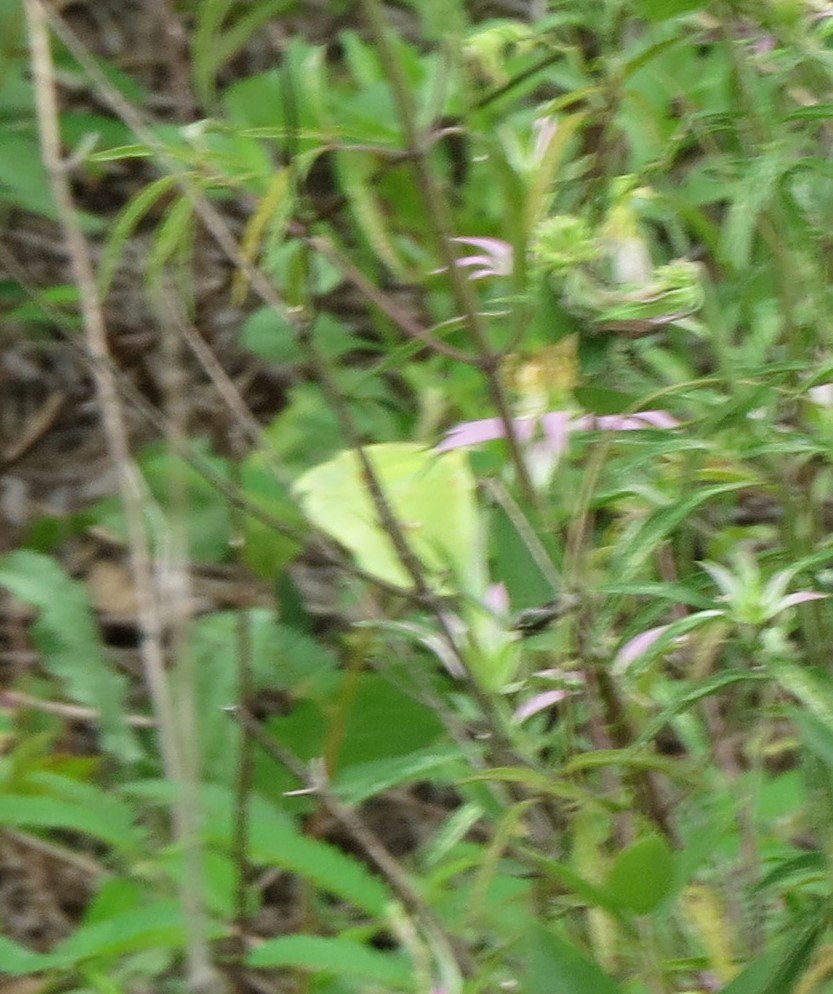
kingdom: Animalia
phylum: Arthropoda
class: Insecta
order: Lepidoptera
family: Pieridae
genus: Phoebis
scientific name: Phoebis sennae
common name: Cloudless Sulphur
